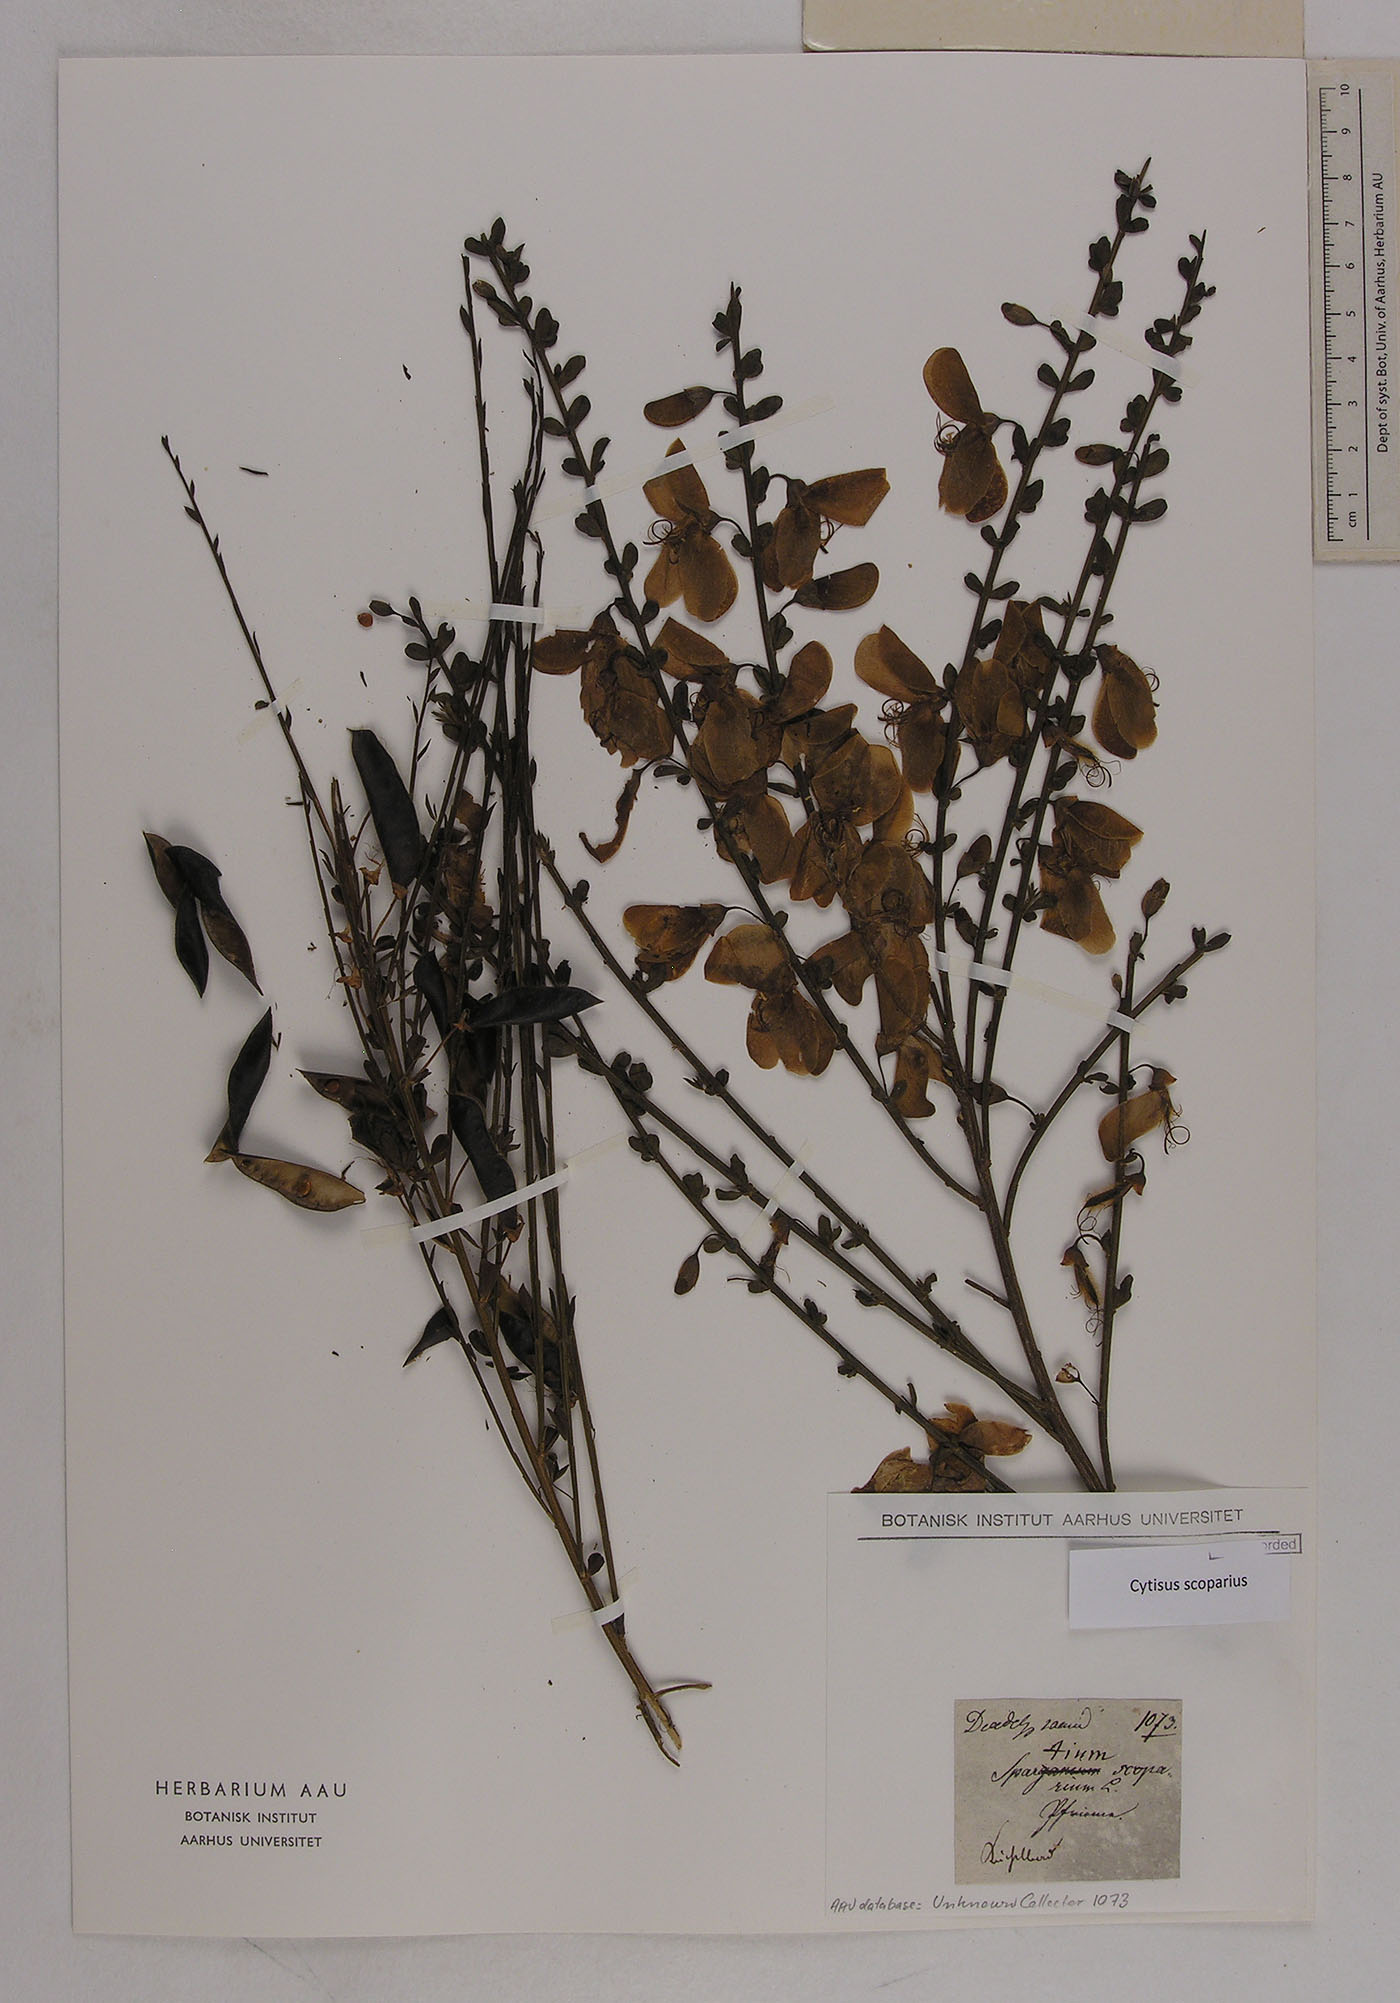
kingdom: Plantae
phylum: Tracheophyta
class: Magnoliopsida
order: Fabales
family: Fabaceae
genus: Cytisus
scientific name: Cytisus scoparius
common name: Scotch broom
